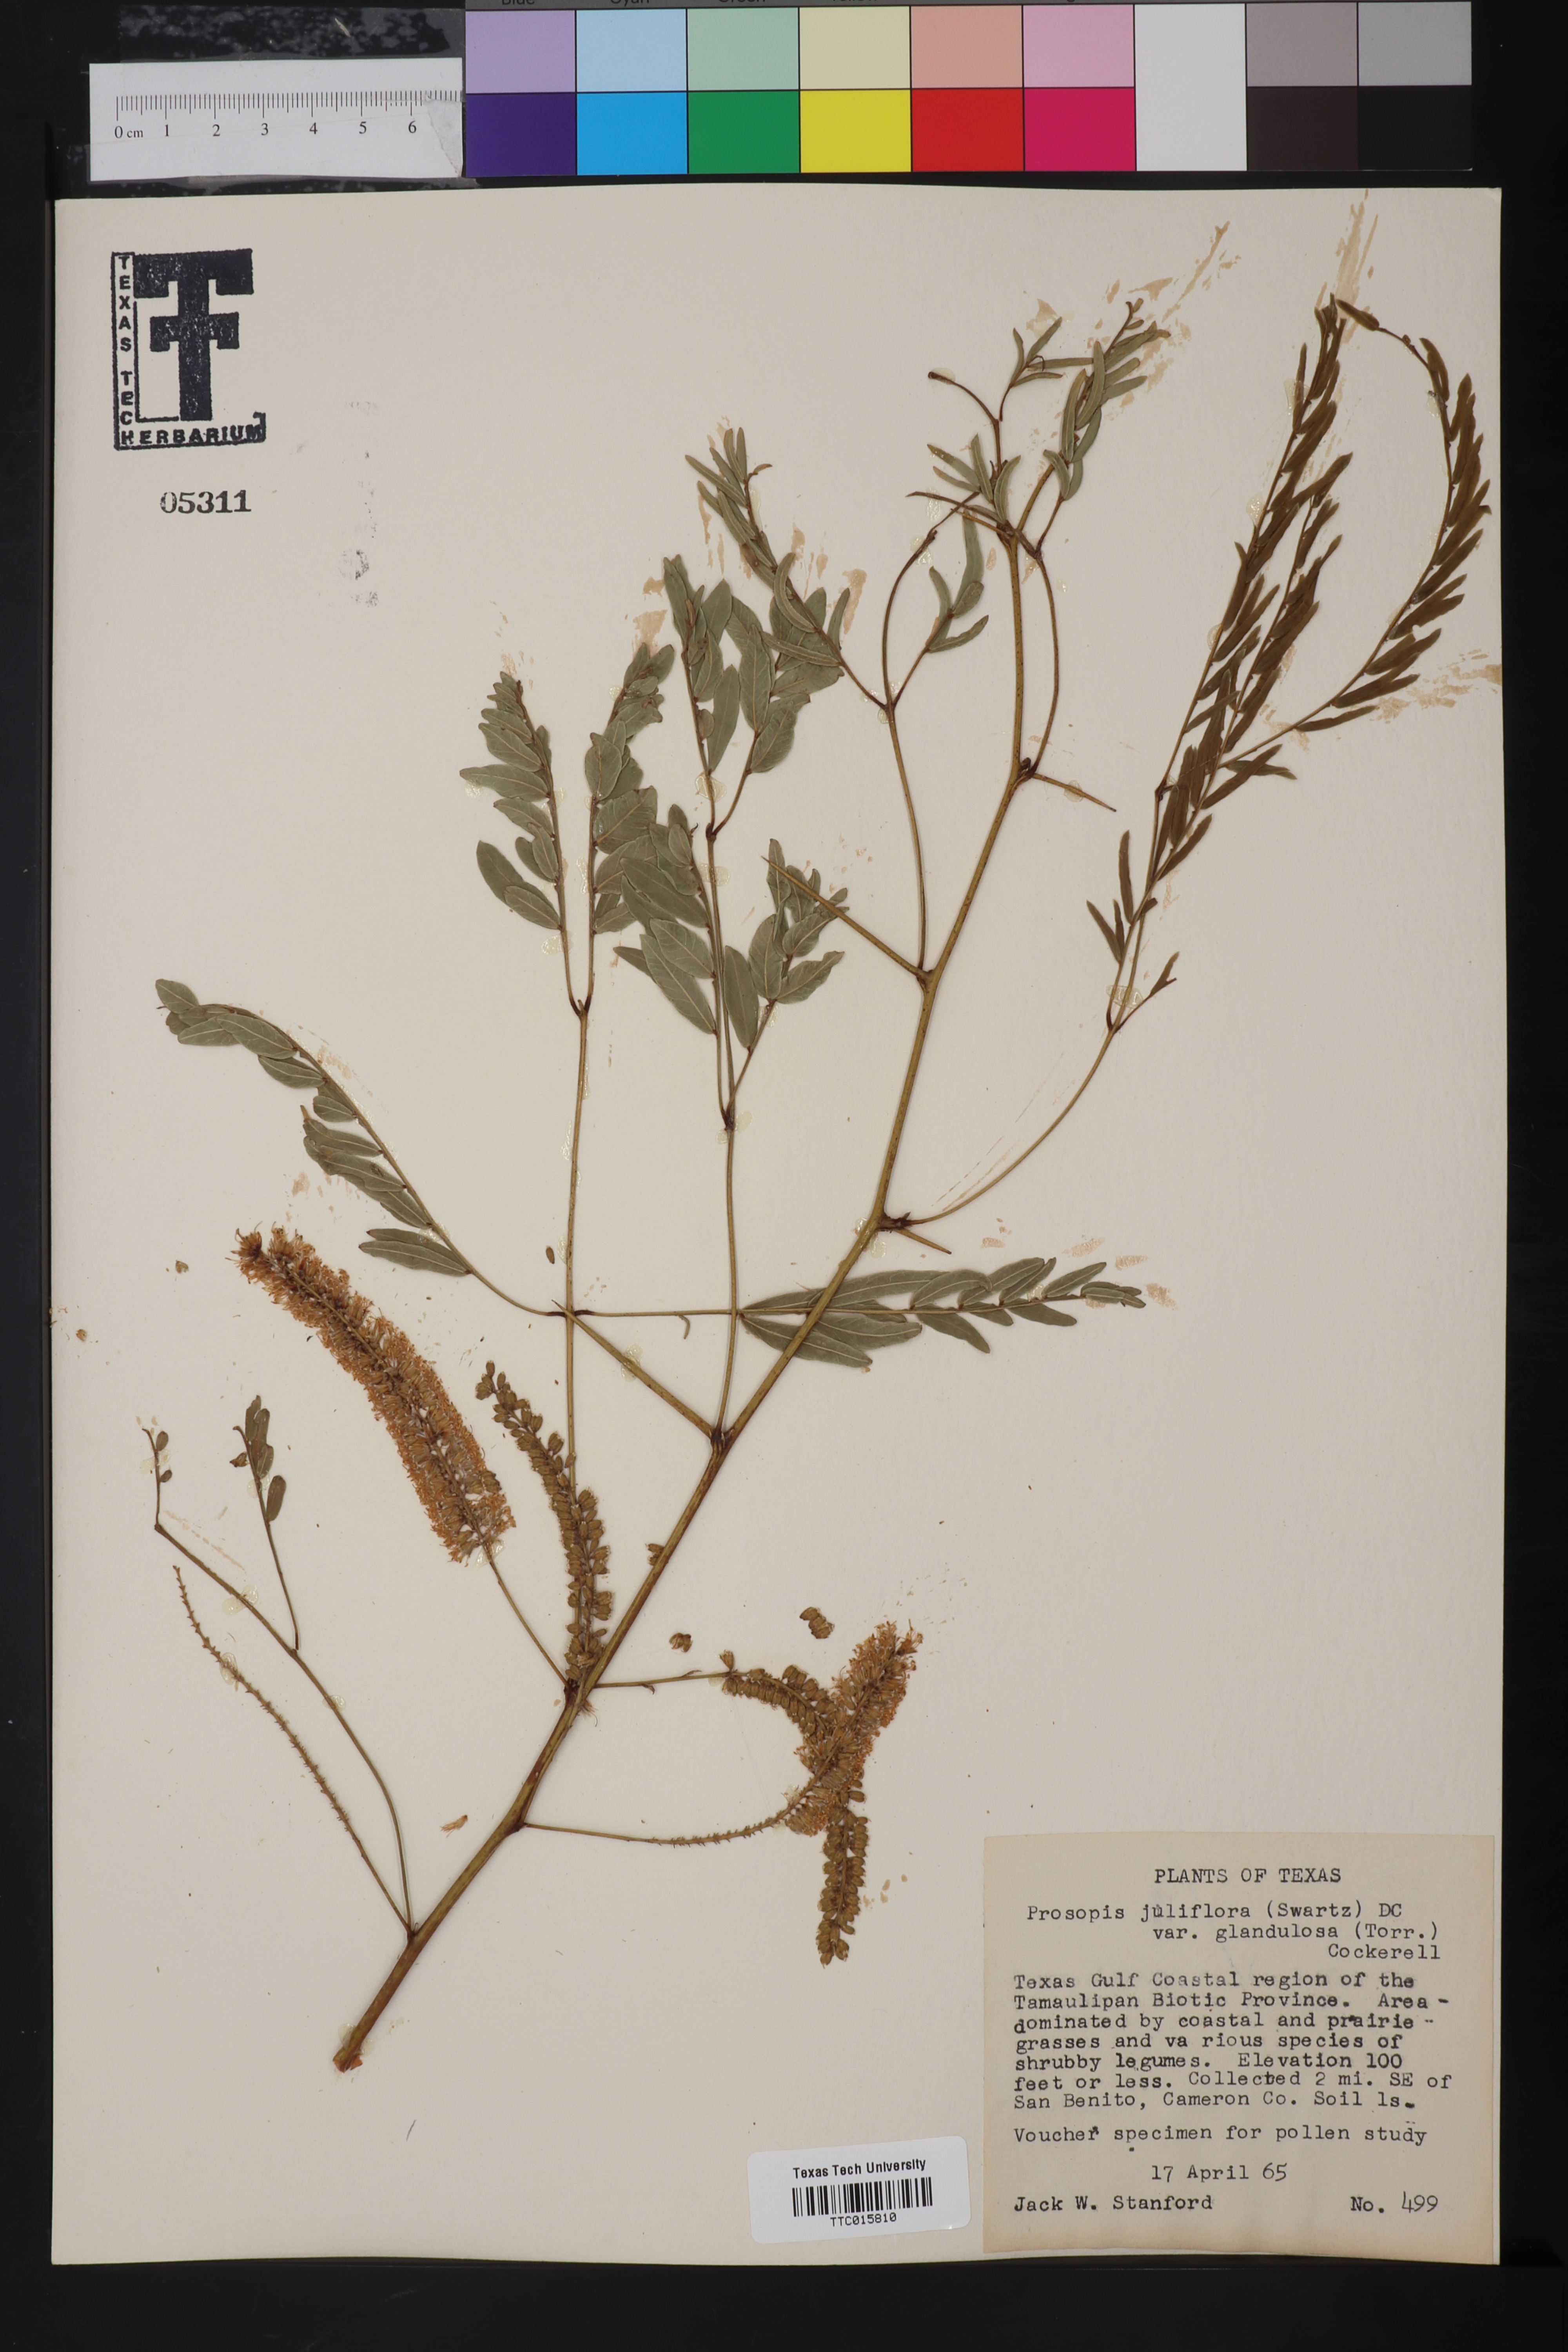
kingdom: Plantae
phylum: Tracheophyta
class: Magnoliopsida
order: Fabales
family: Fabaceae
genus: Prosopis
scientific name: Prosopis glandulosa
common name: Honey mesquite
